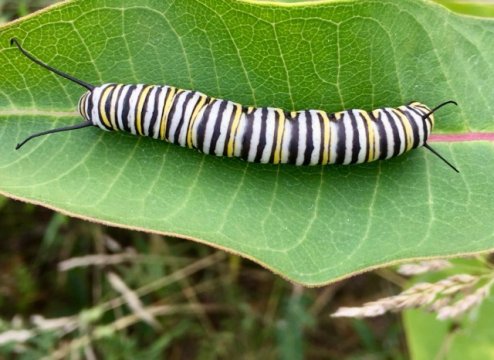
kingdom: Animalia
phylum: Arthropoda
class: Insecta
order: Lepidoptera
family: Nymphalidae
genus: Danaus
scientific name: Danaus plexippus
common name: Monarch
